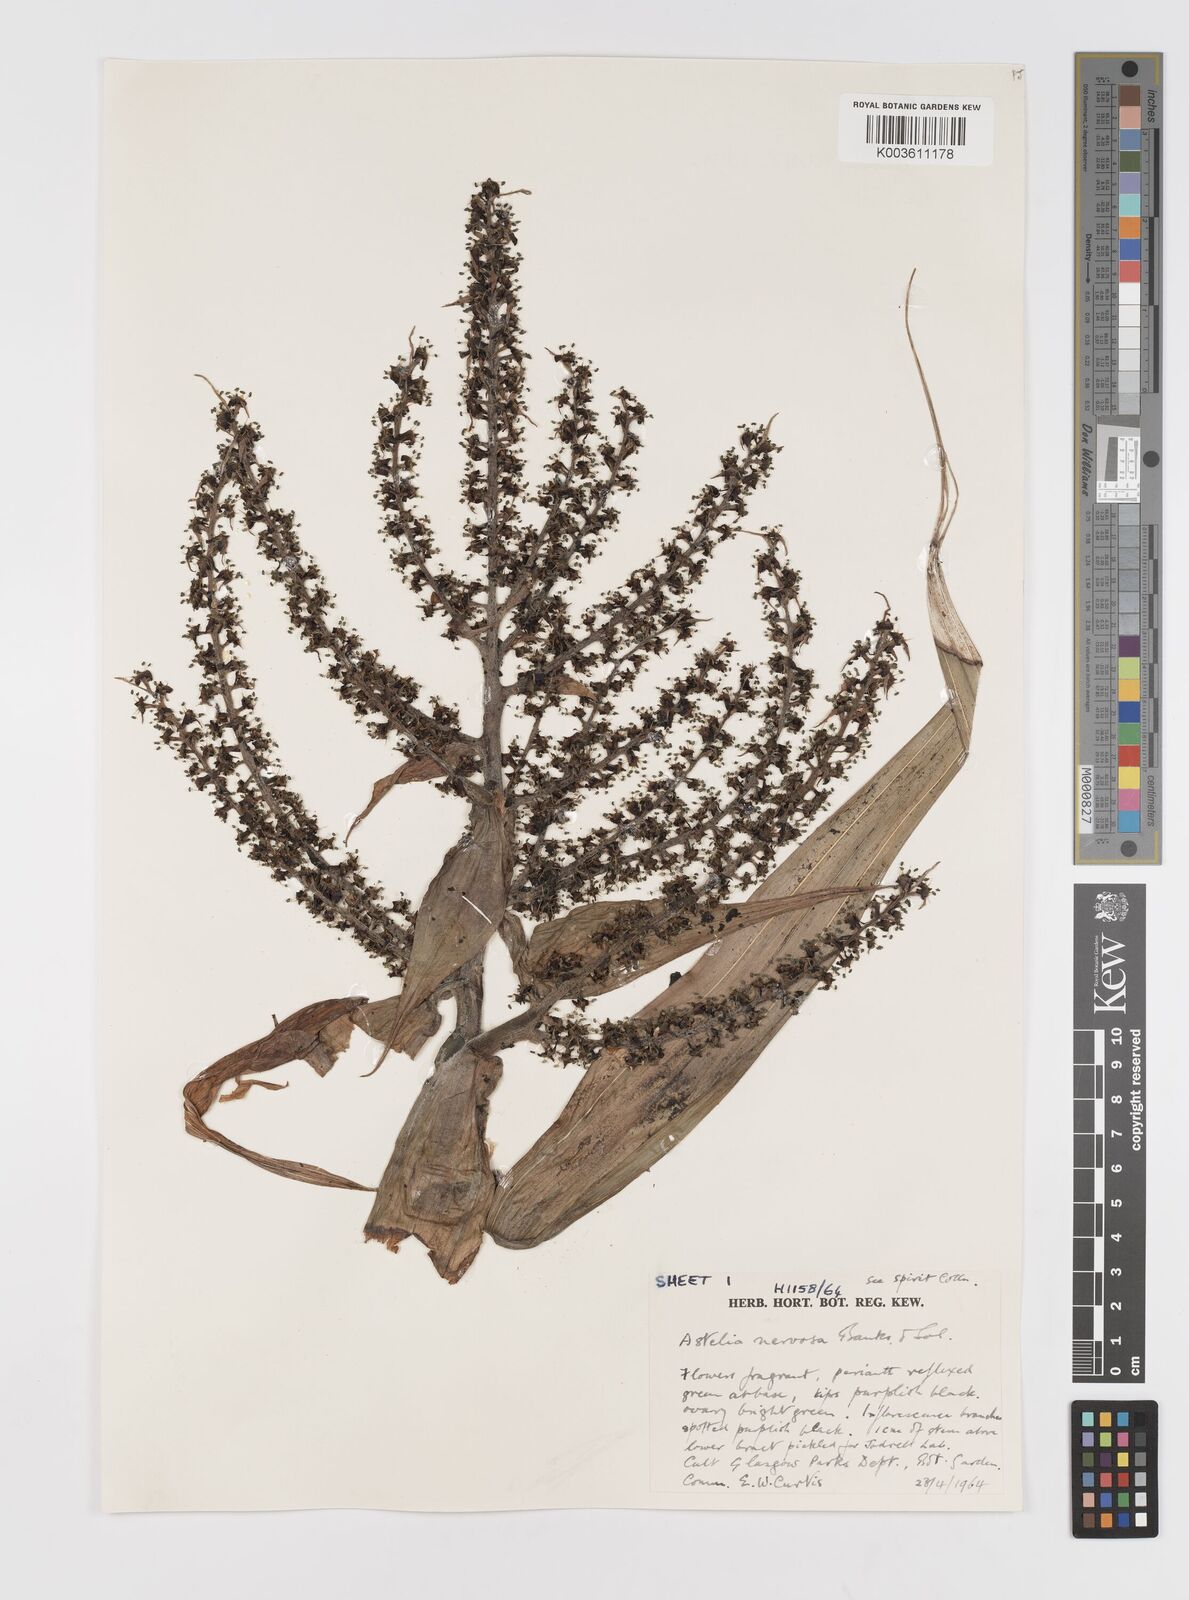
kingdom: Plantae
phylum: Tracheophyta
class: Liliopsida
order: Asparagales
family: Asteliaceae
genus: Astelia
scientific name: Astelia nervosa
